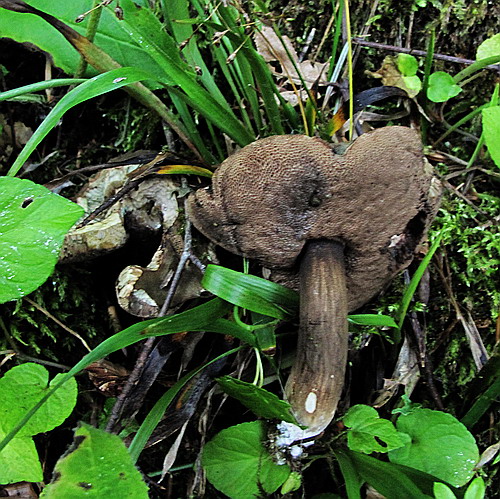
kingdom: Fungi
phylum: Basidiomycota
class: Agaricomycetes
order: Boletales
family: Boletaceae
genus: Porphyrellus
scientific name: Porphyrellus porphyrosporus
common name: sodrørhat
